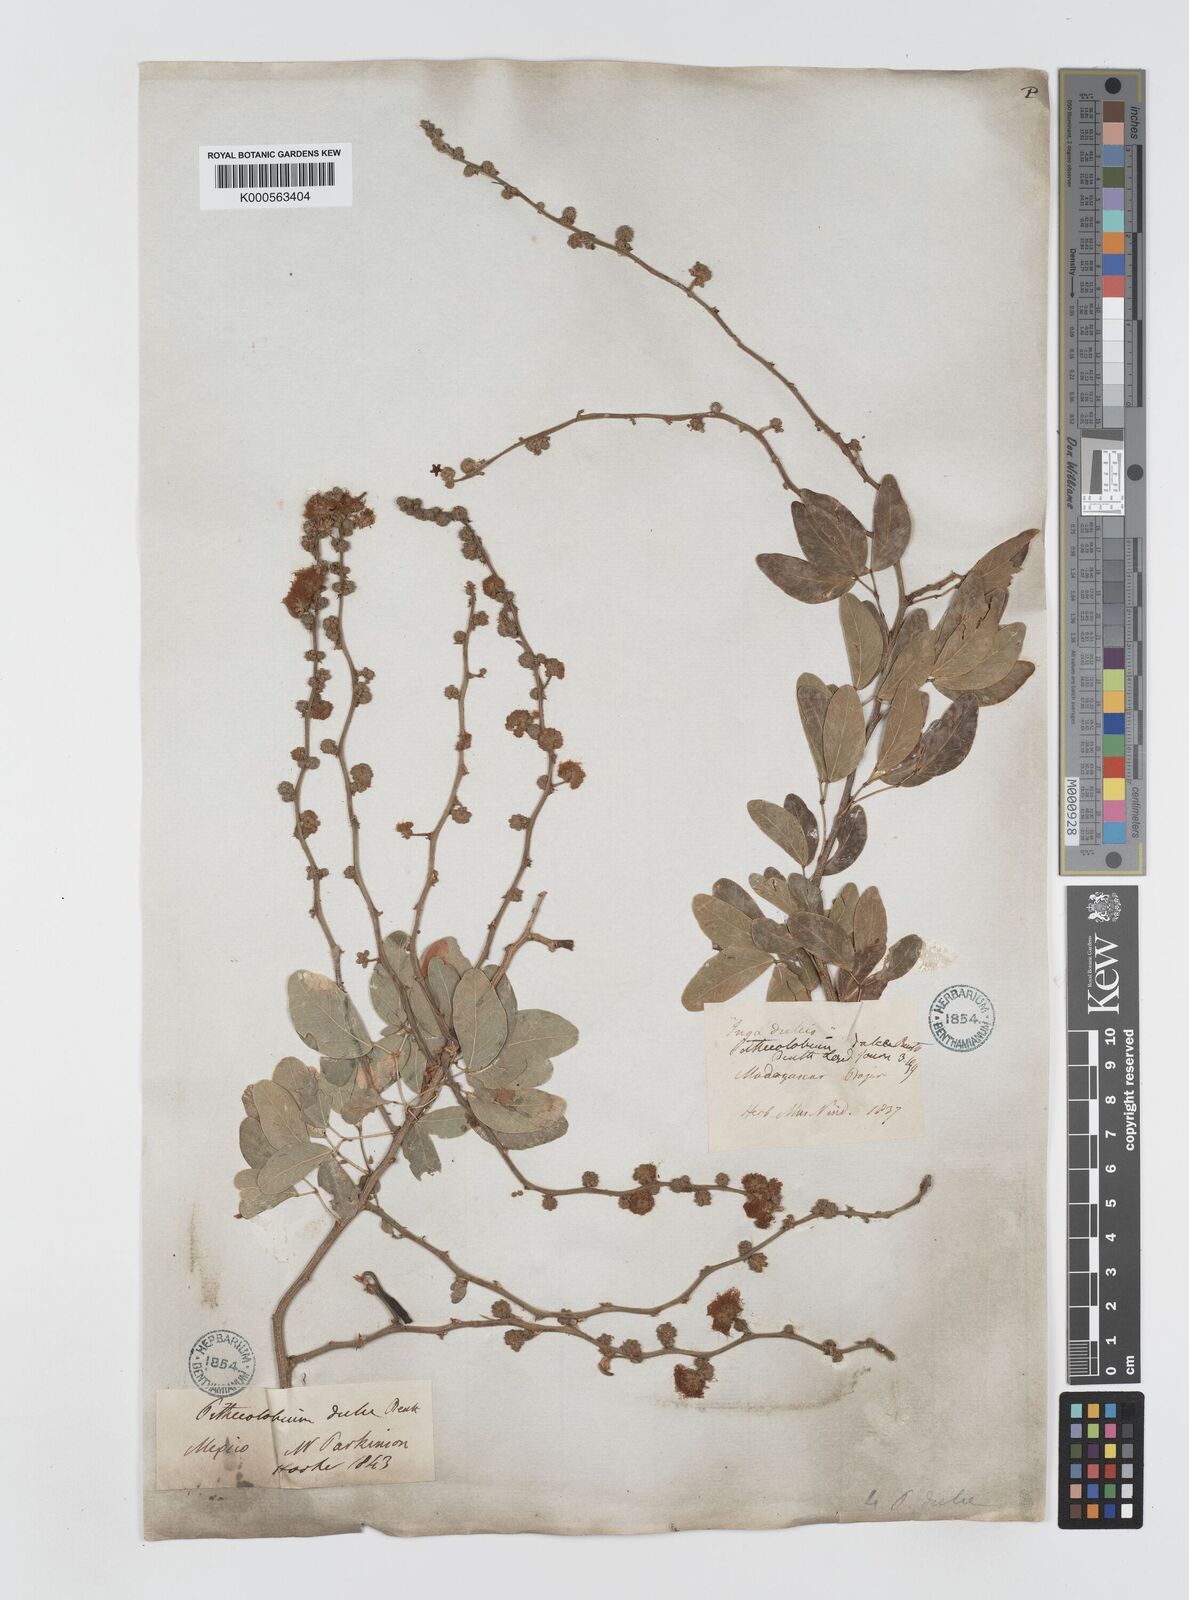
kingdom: Plantae
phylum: Tracheophyta
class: Magnoliopsida
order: Fabales
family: Fabaceae
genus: Pithecellobium
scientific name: Pithecellobium dulce
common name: Monkeypod
